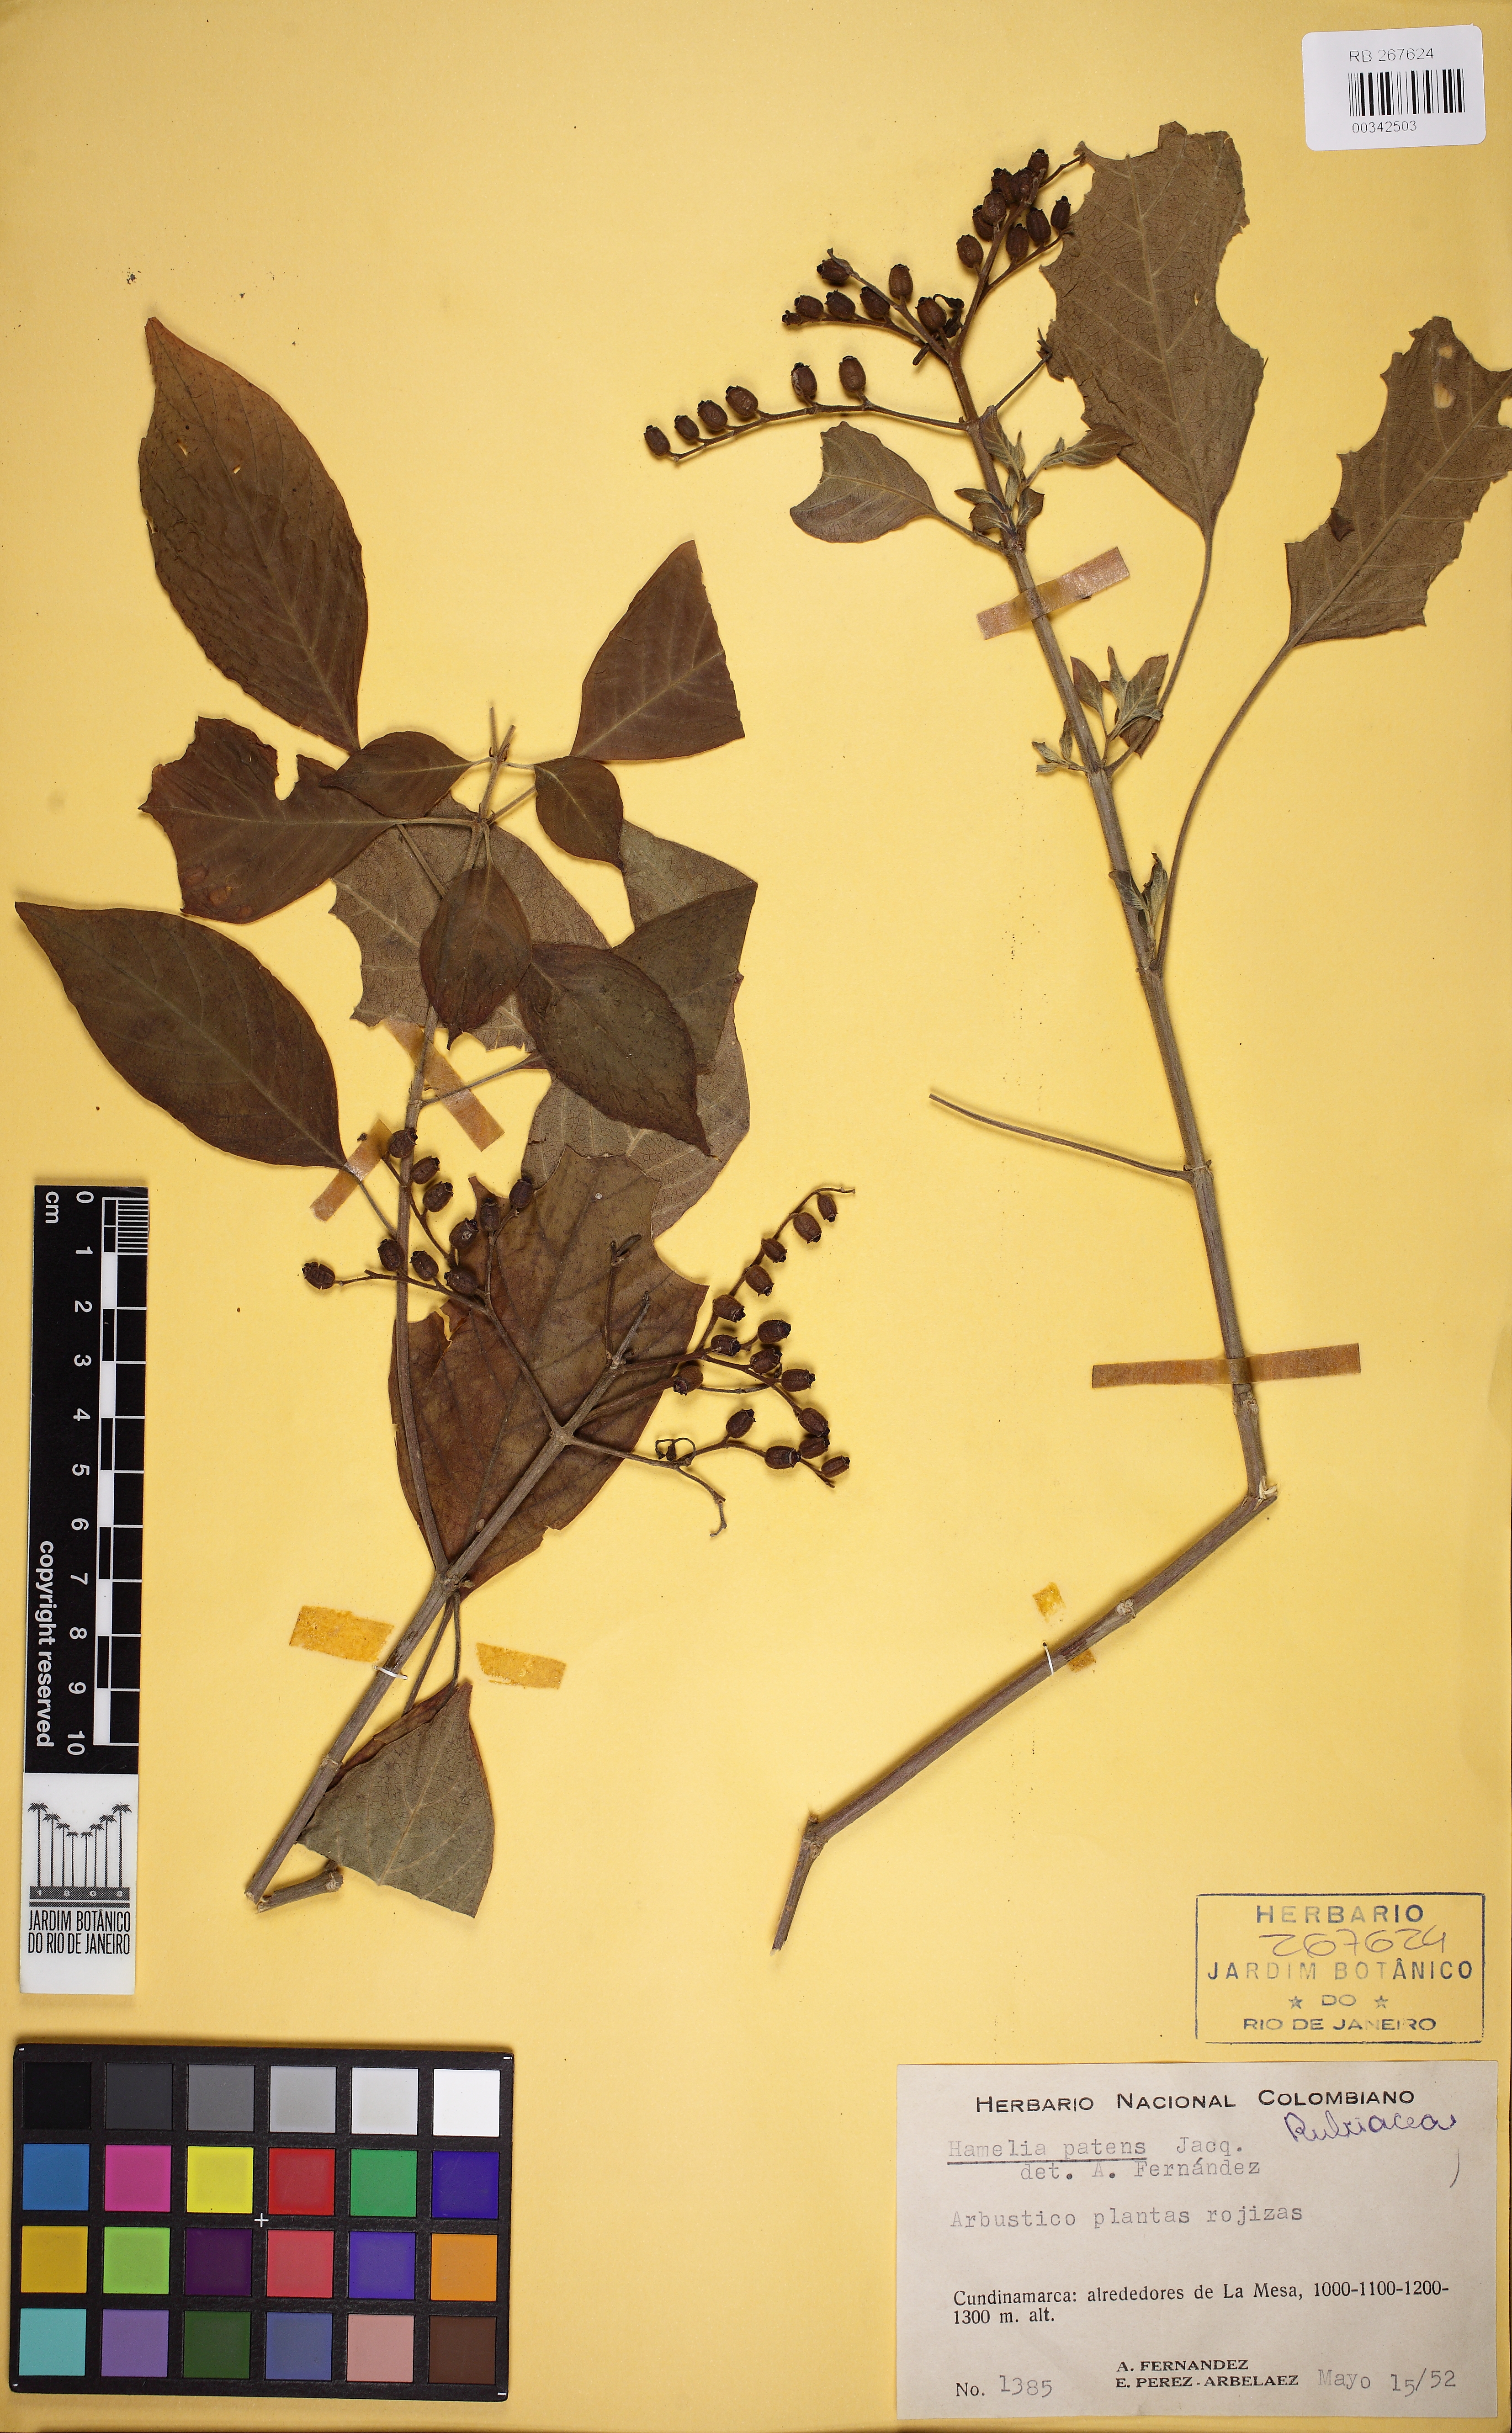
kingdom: Plantae
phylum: Tracheophyta
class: Magnoliopsida
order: Gentianales
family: Rubiaceae
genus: Hamelia
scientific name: Hamelia patens
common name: Redhead
